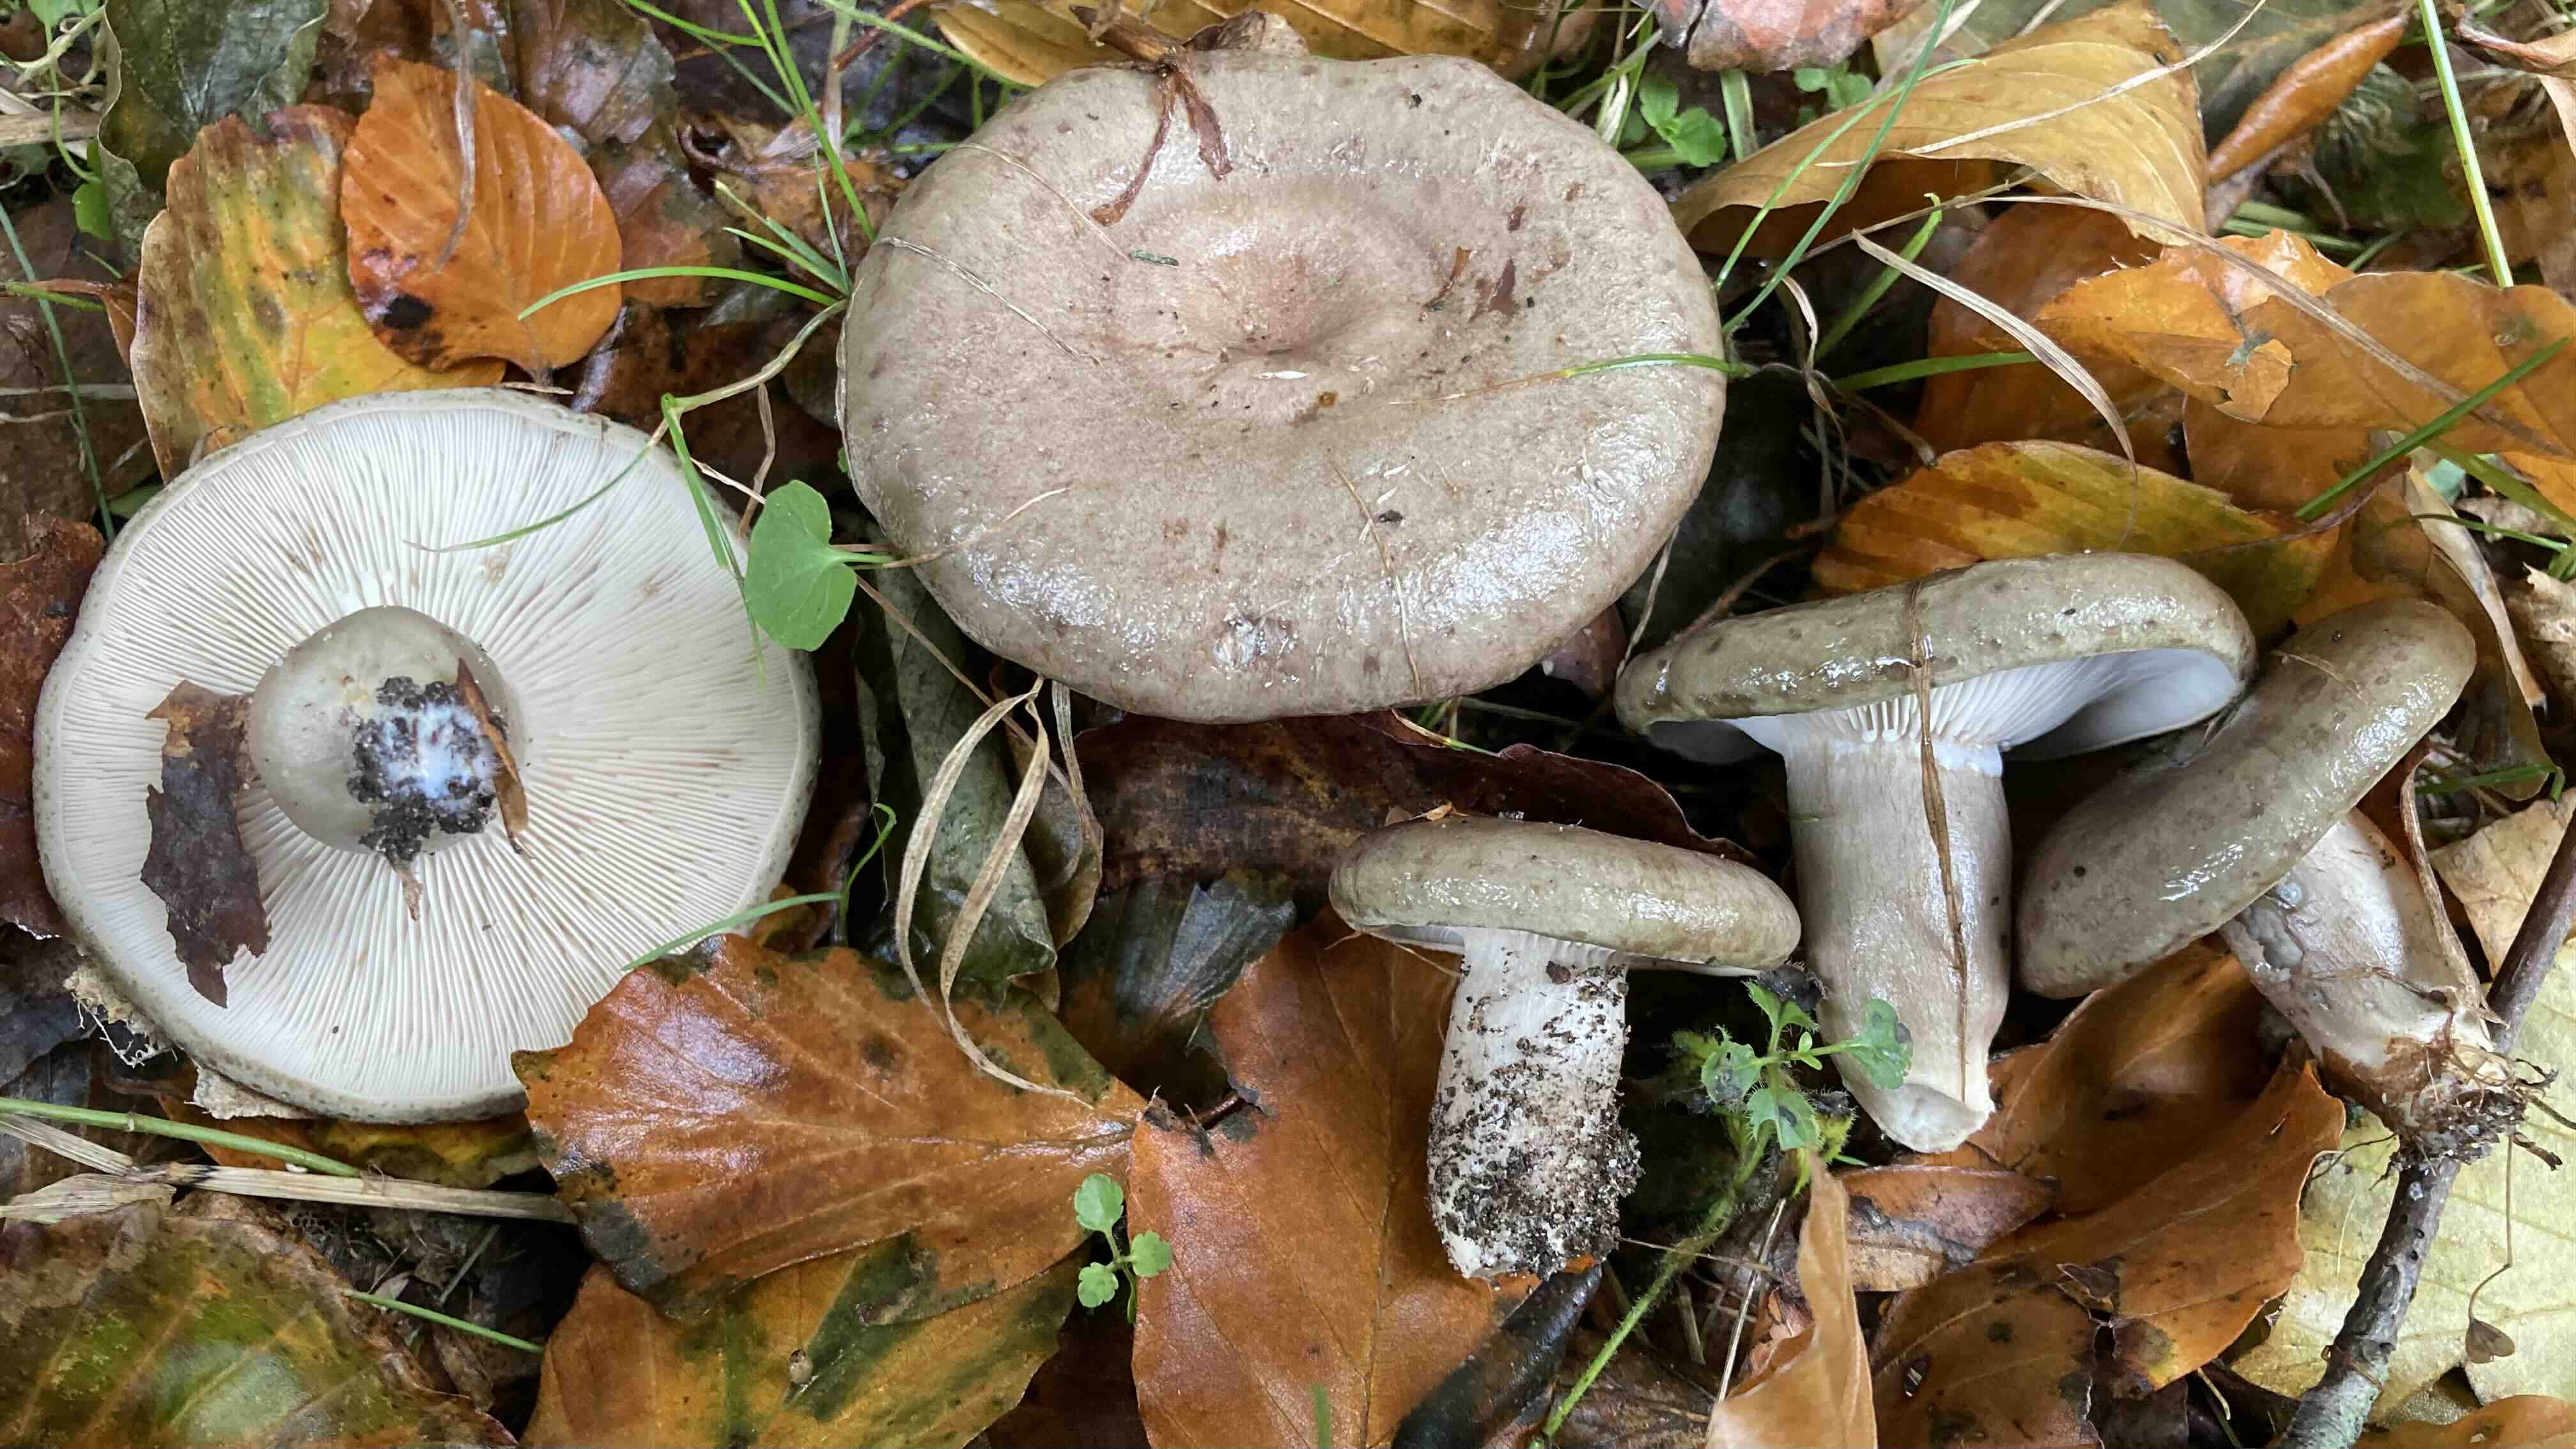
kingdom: Fungi
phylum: Basidiomycota
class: Agaricomycetes
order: Russulales
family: Russulaceae
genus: Lactarius
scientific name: Lactarius blennius
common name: dråbeplettet mælkehat
